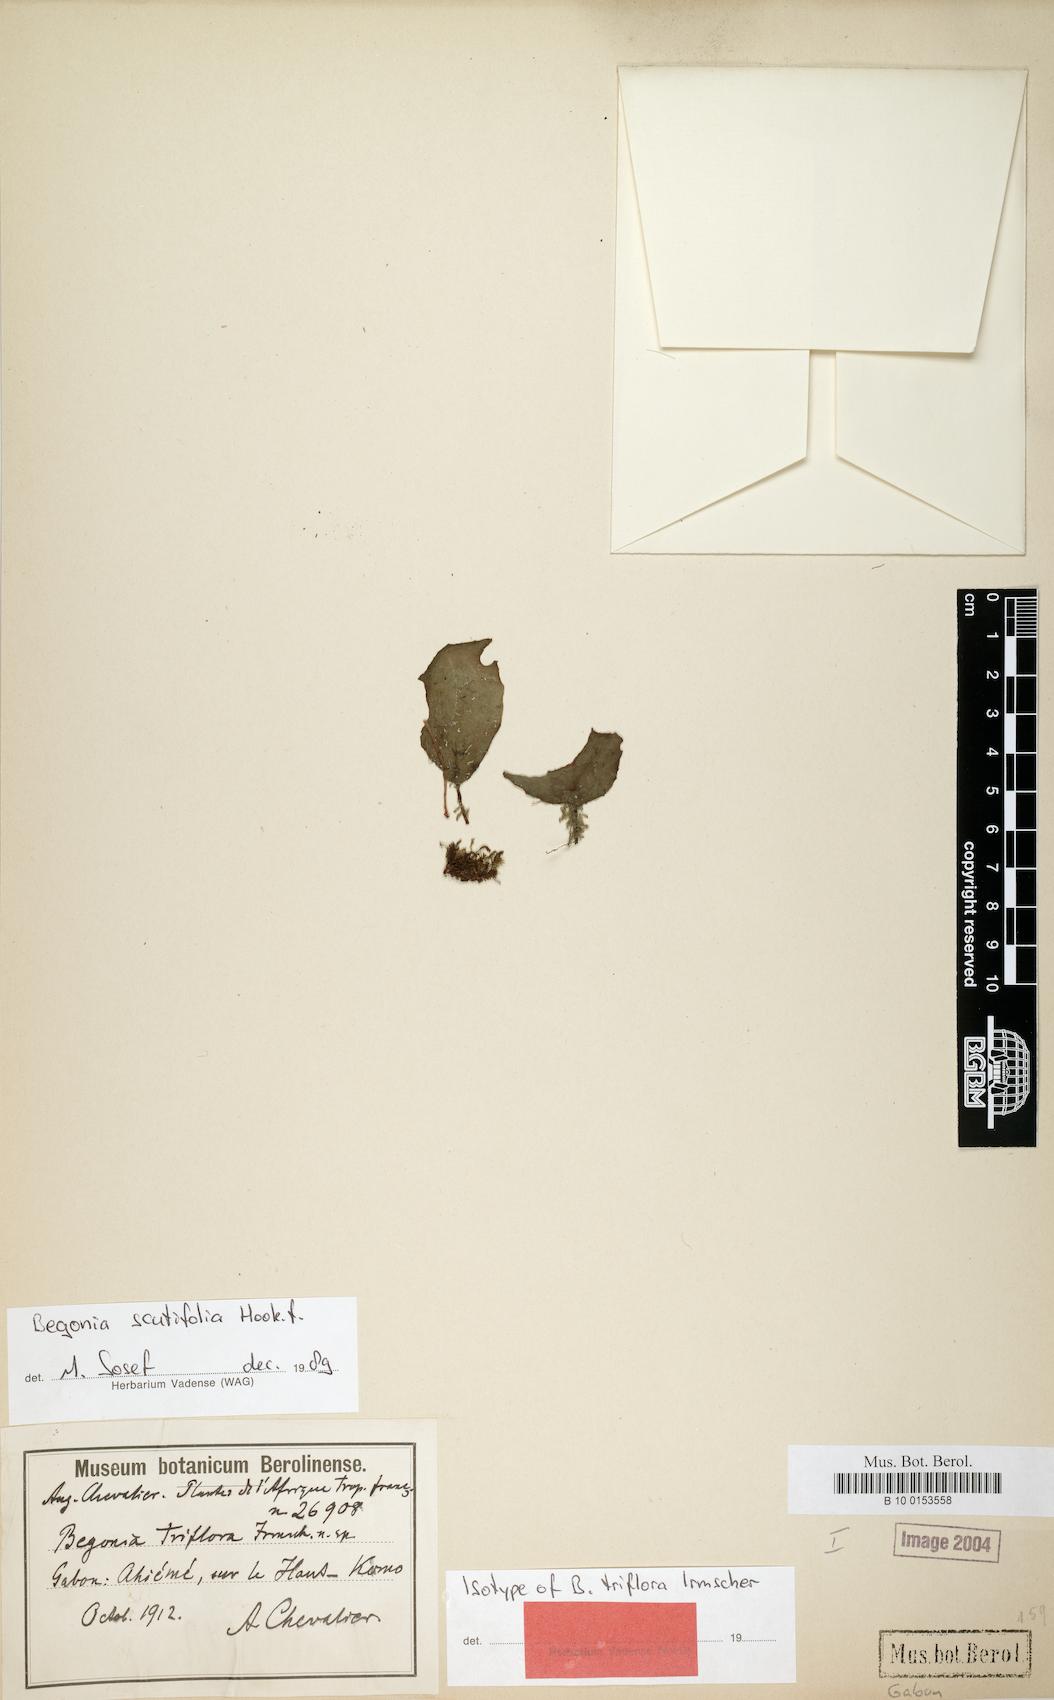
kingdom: Plantae
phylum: Tracheophyta
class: Magnoliopsida
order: Cucurbitales
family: Begoniaceae
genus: Begonia
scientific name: Begonia scutifolia
